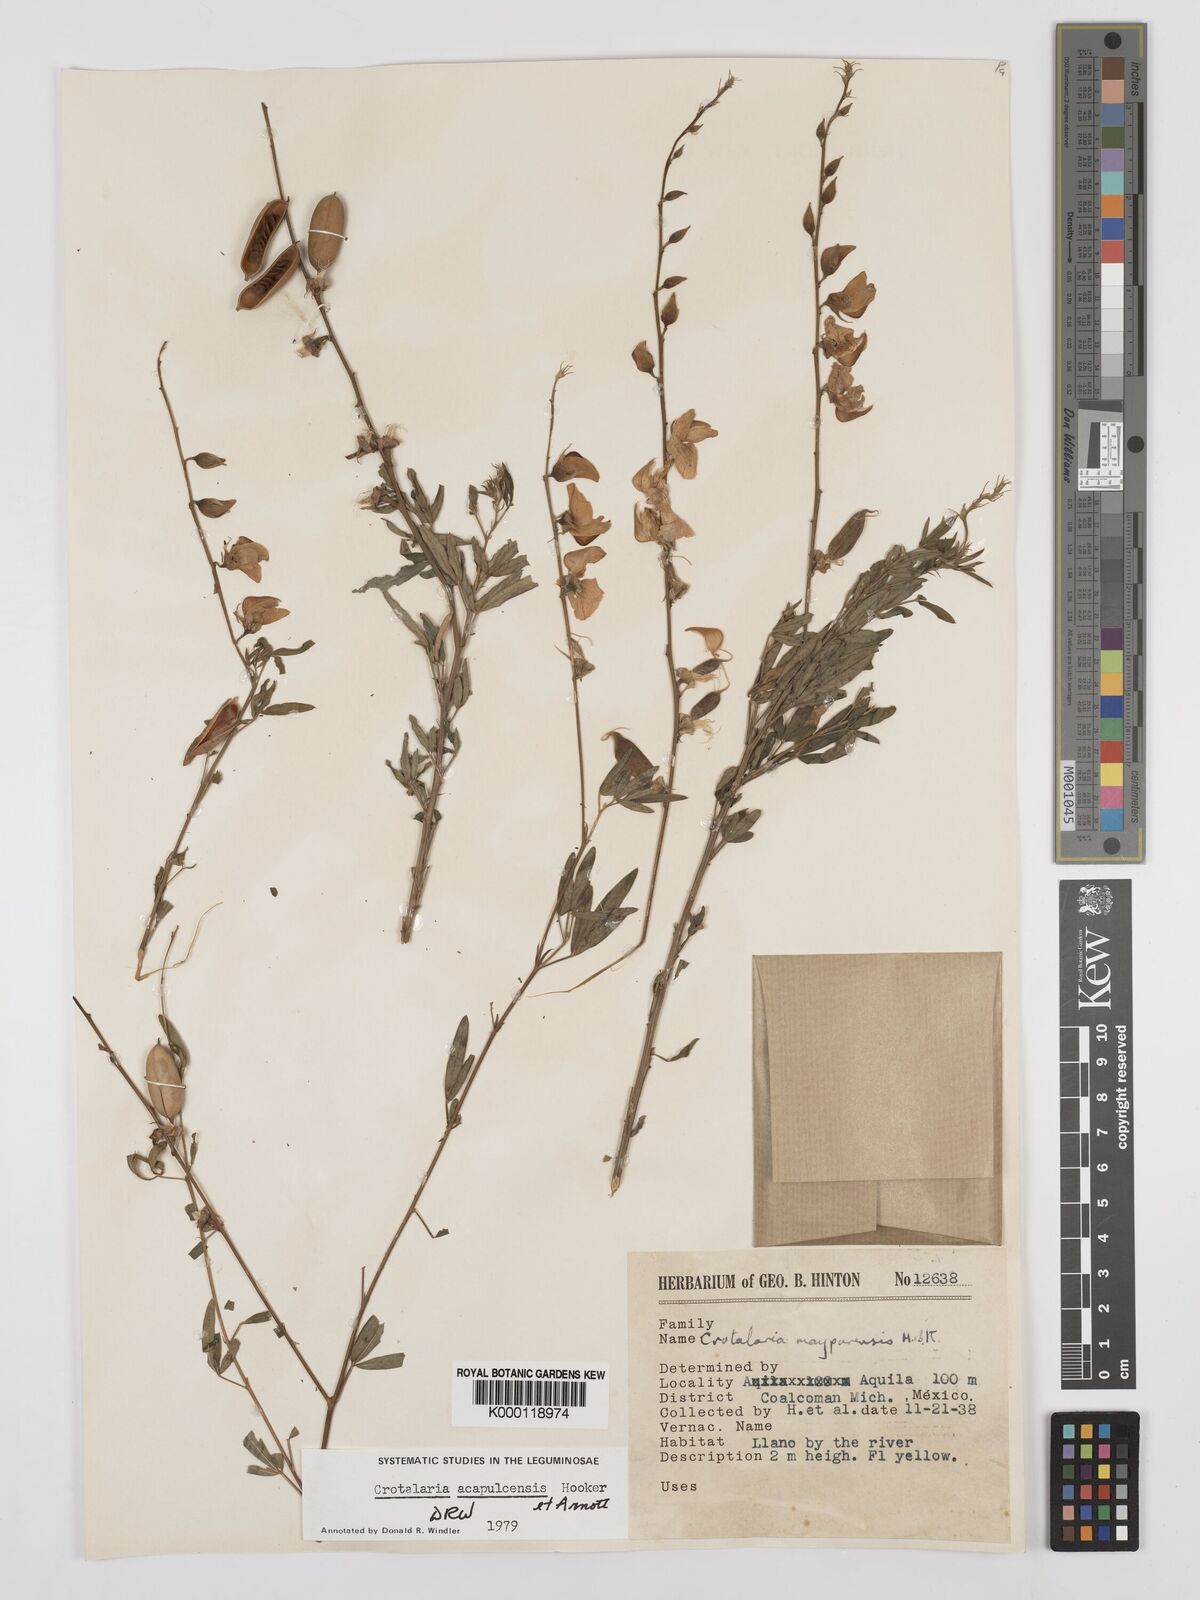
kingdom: Plantae
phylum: Tracheophyta
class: Magnoliopsida
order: Fabales
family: Fabaceae
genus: Crotalaria
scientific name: Crotalaria maypurensis
